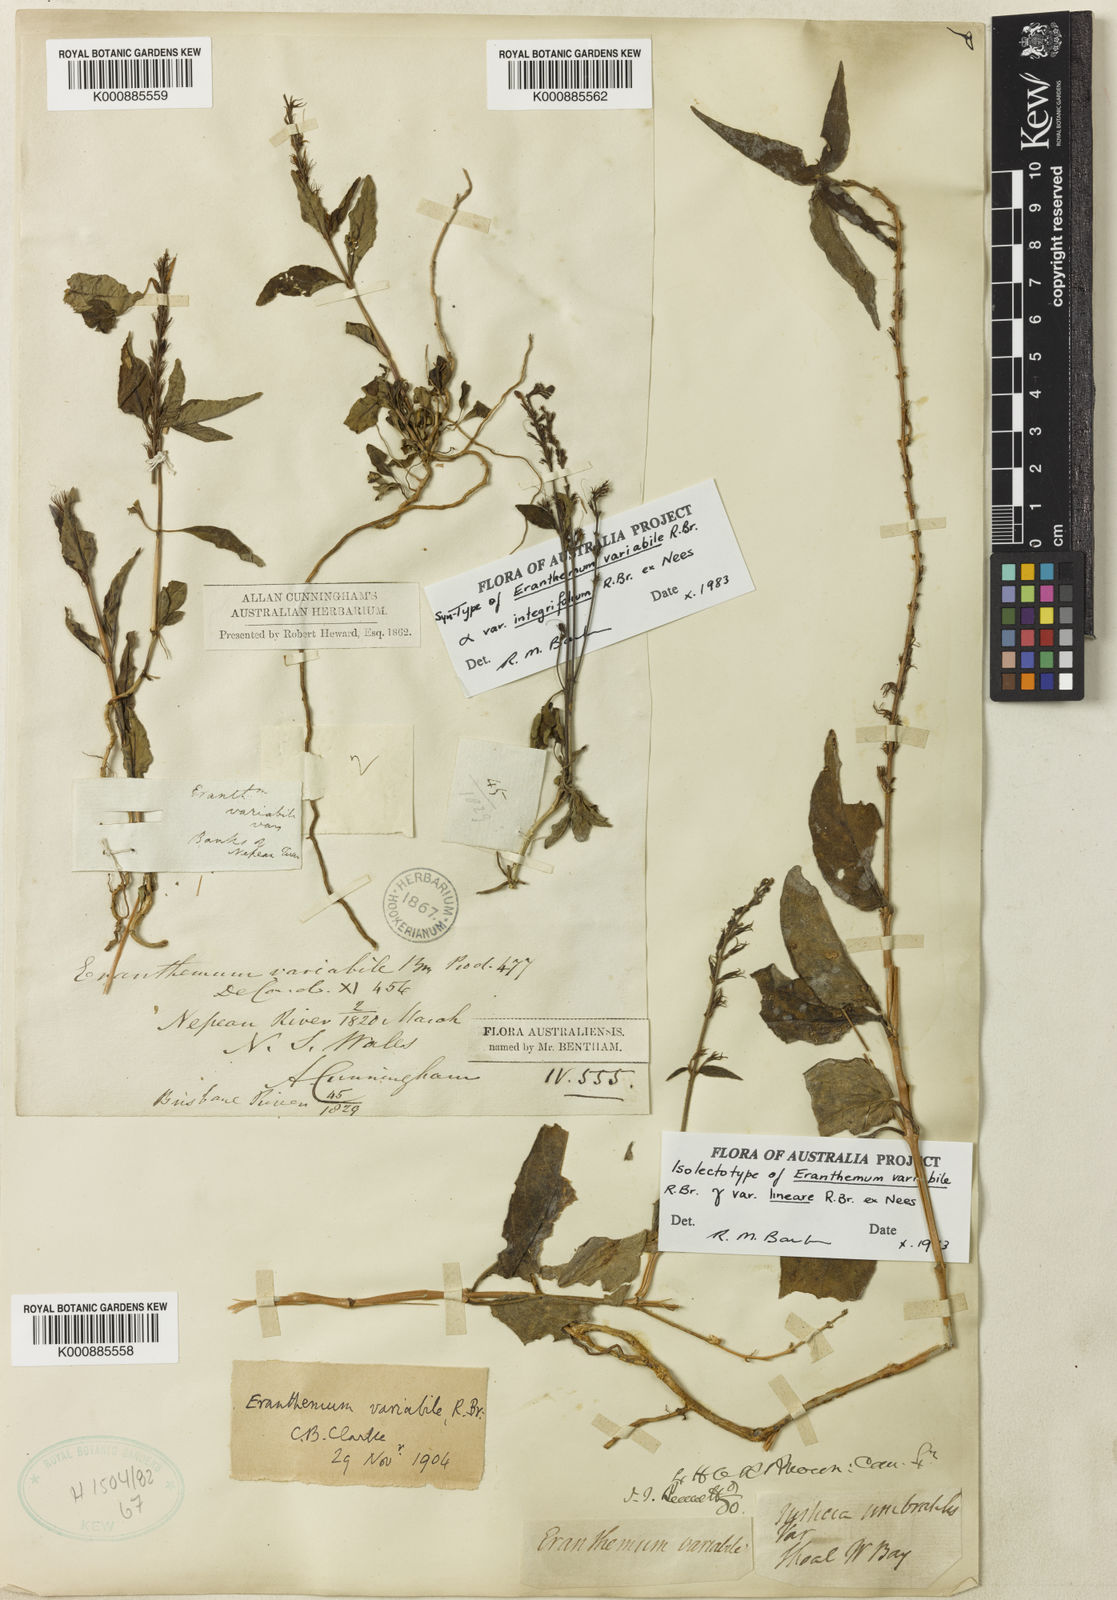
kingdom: Plantae
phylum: Tracheophyta
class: Magnoliopsida
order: Lamiales
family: Acanthaceae
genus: Pseuderanthemum
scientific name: Pseuderanthemum variabile
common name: Night and afternoon
